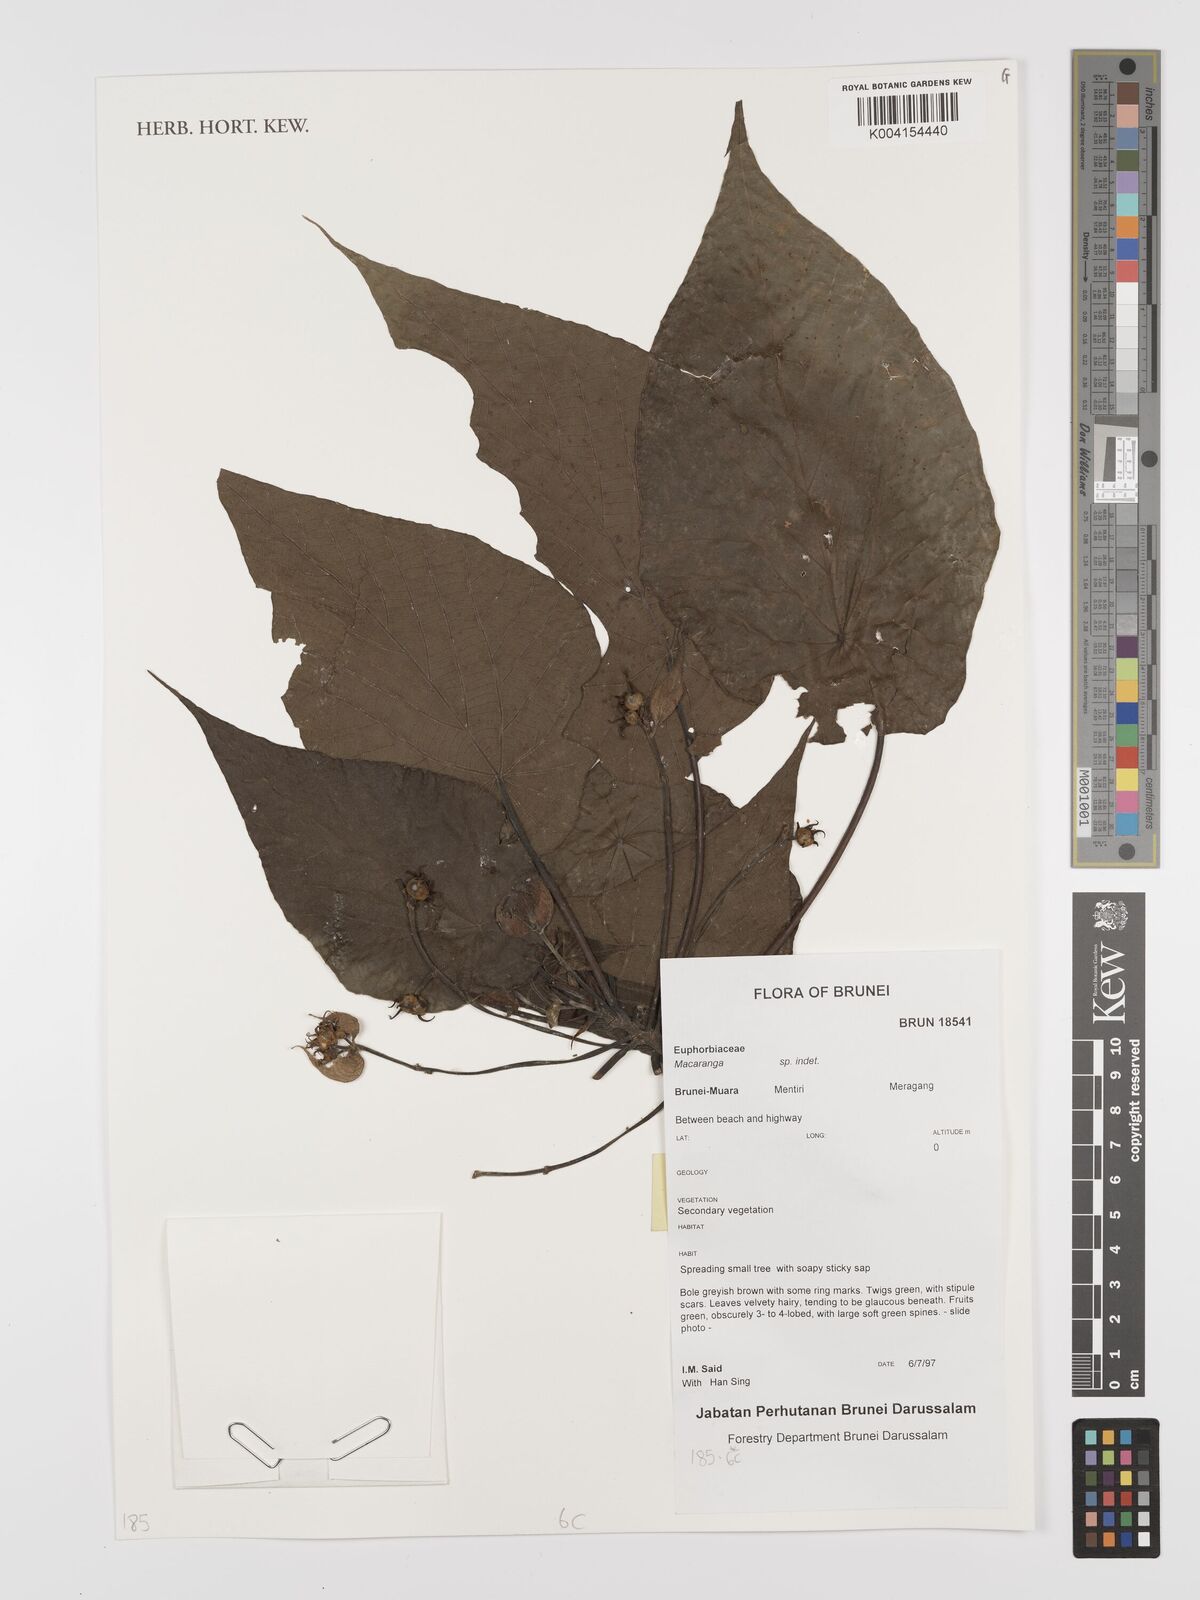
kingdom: Plantae
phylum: Tracheophyta
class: Magnoliopsida
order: Malpighiales
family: Euphorbiaceae
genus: Macaranga
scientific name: Macaranga
